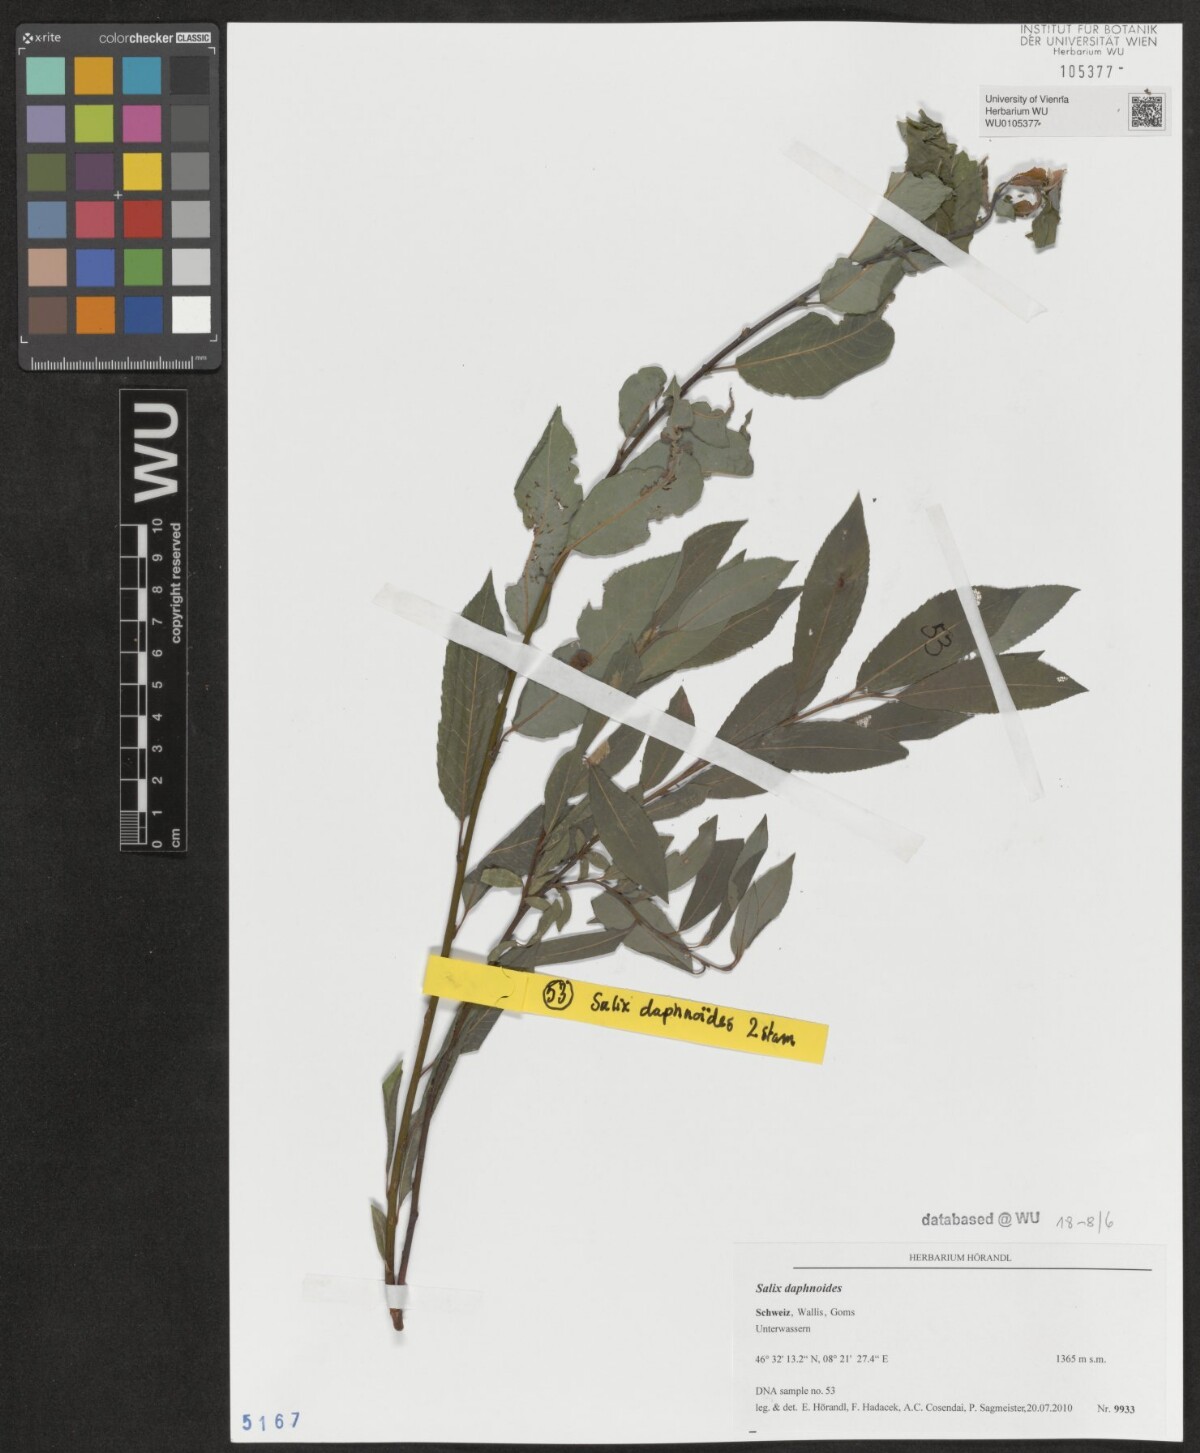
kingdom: Plantae
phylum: Tracheophyta
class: Magnoliopsida
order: Malpighiales
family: Salicaceae
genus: Salix
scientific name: Salix daphnoides
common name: European violet-willow
